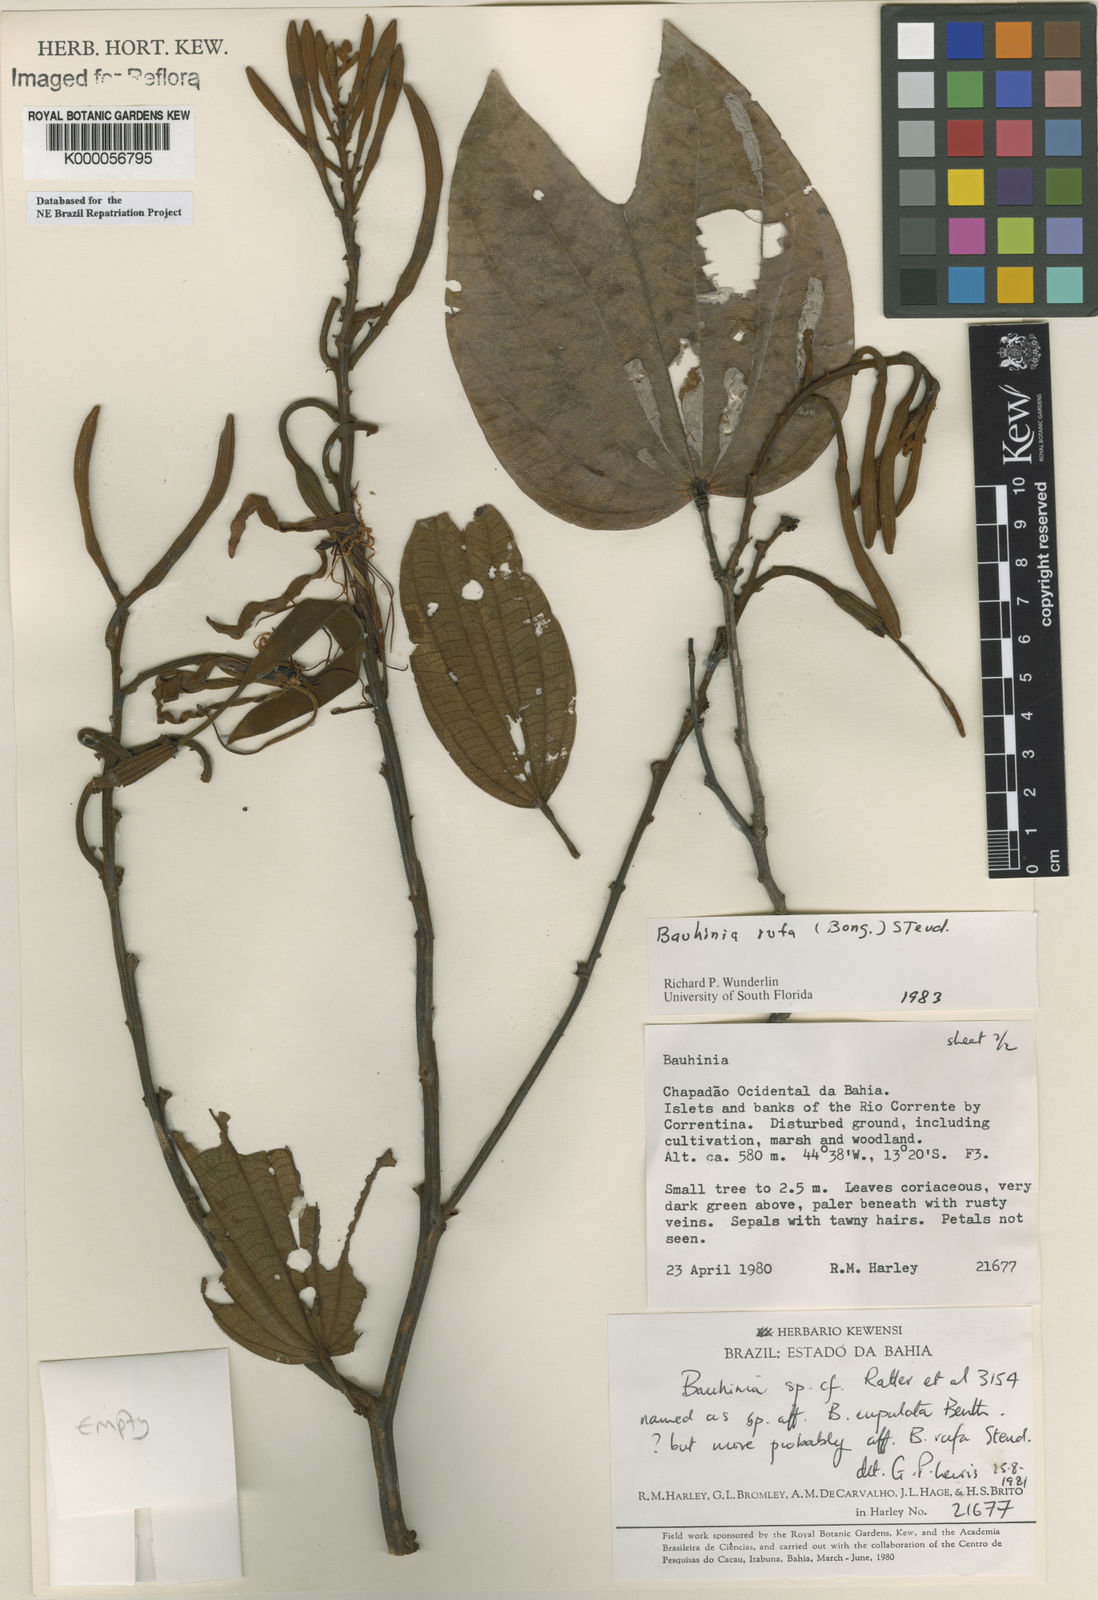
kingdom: Plantae
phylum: Tracheophyta
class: Magnoliopsida
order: Fabales
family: Fabaceae
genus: Bauhinia
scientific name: Bauhinia rufa
